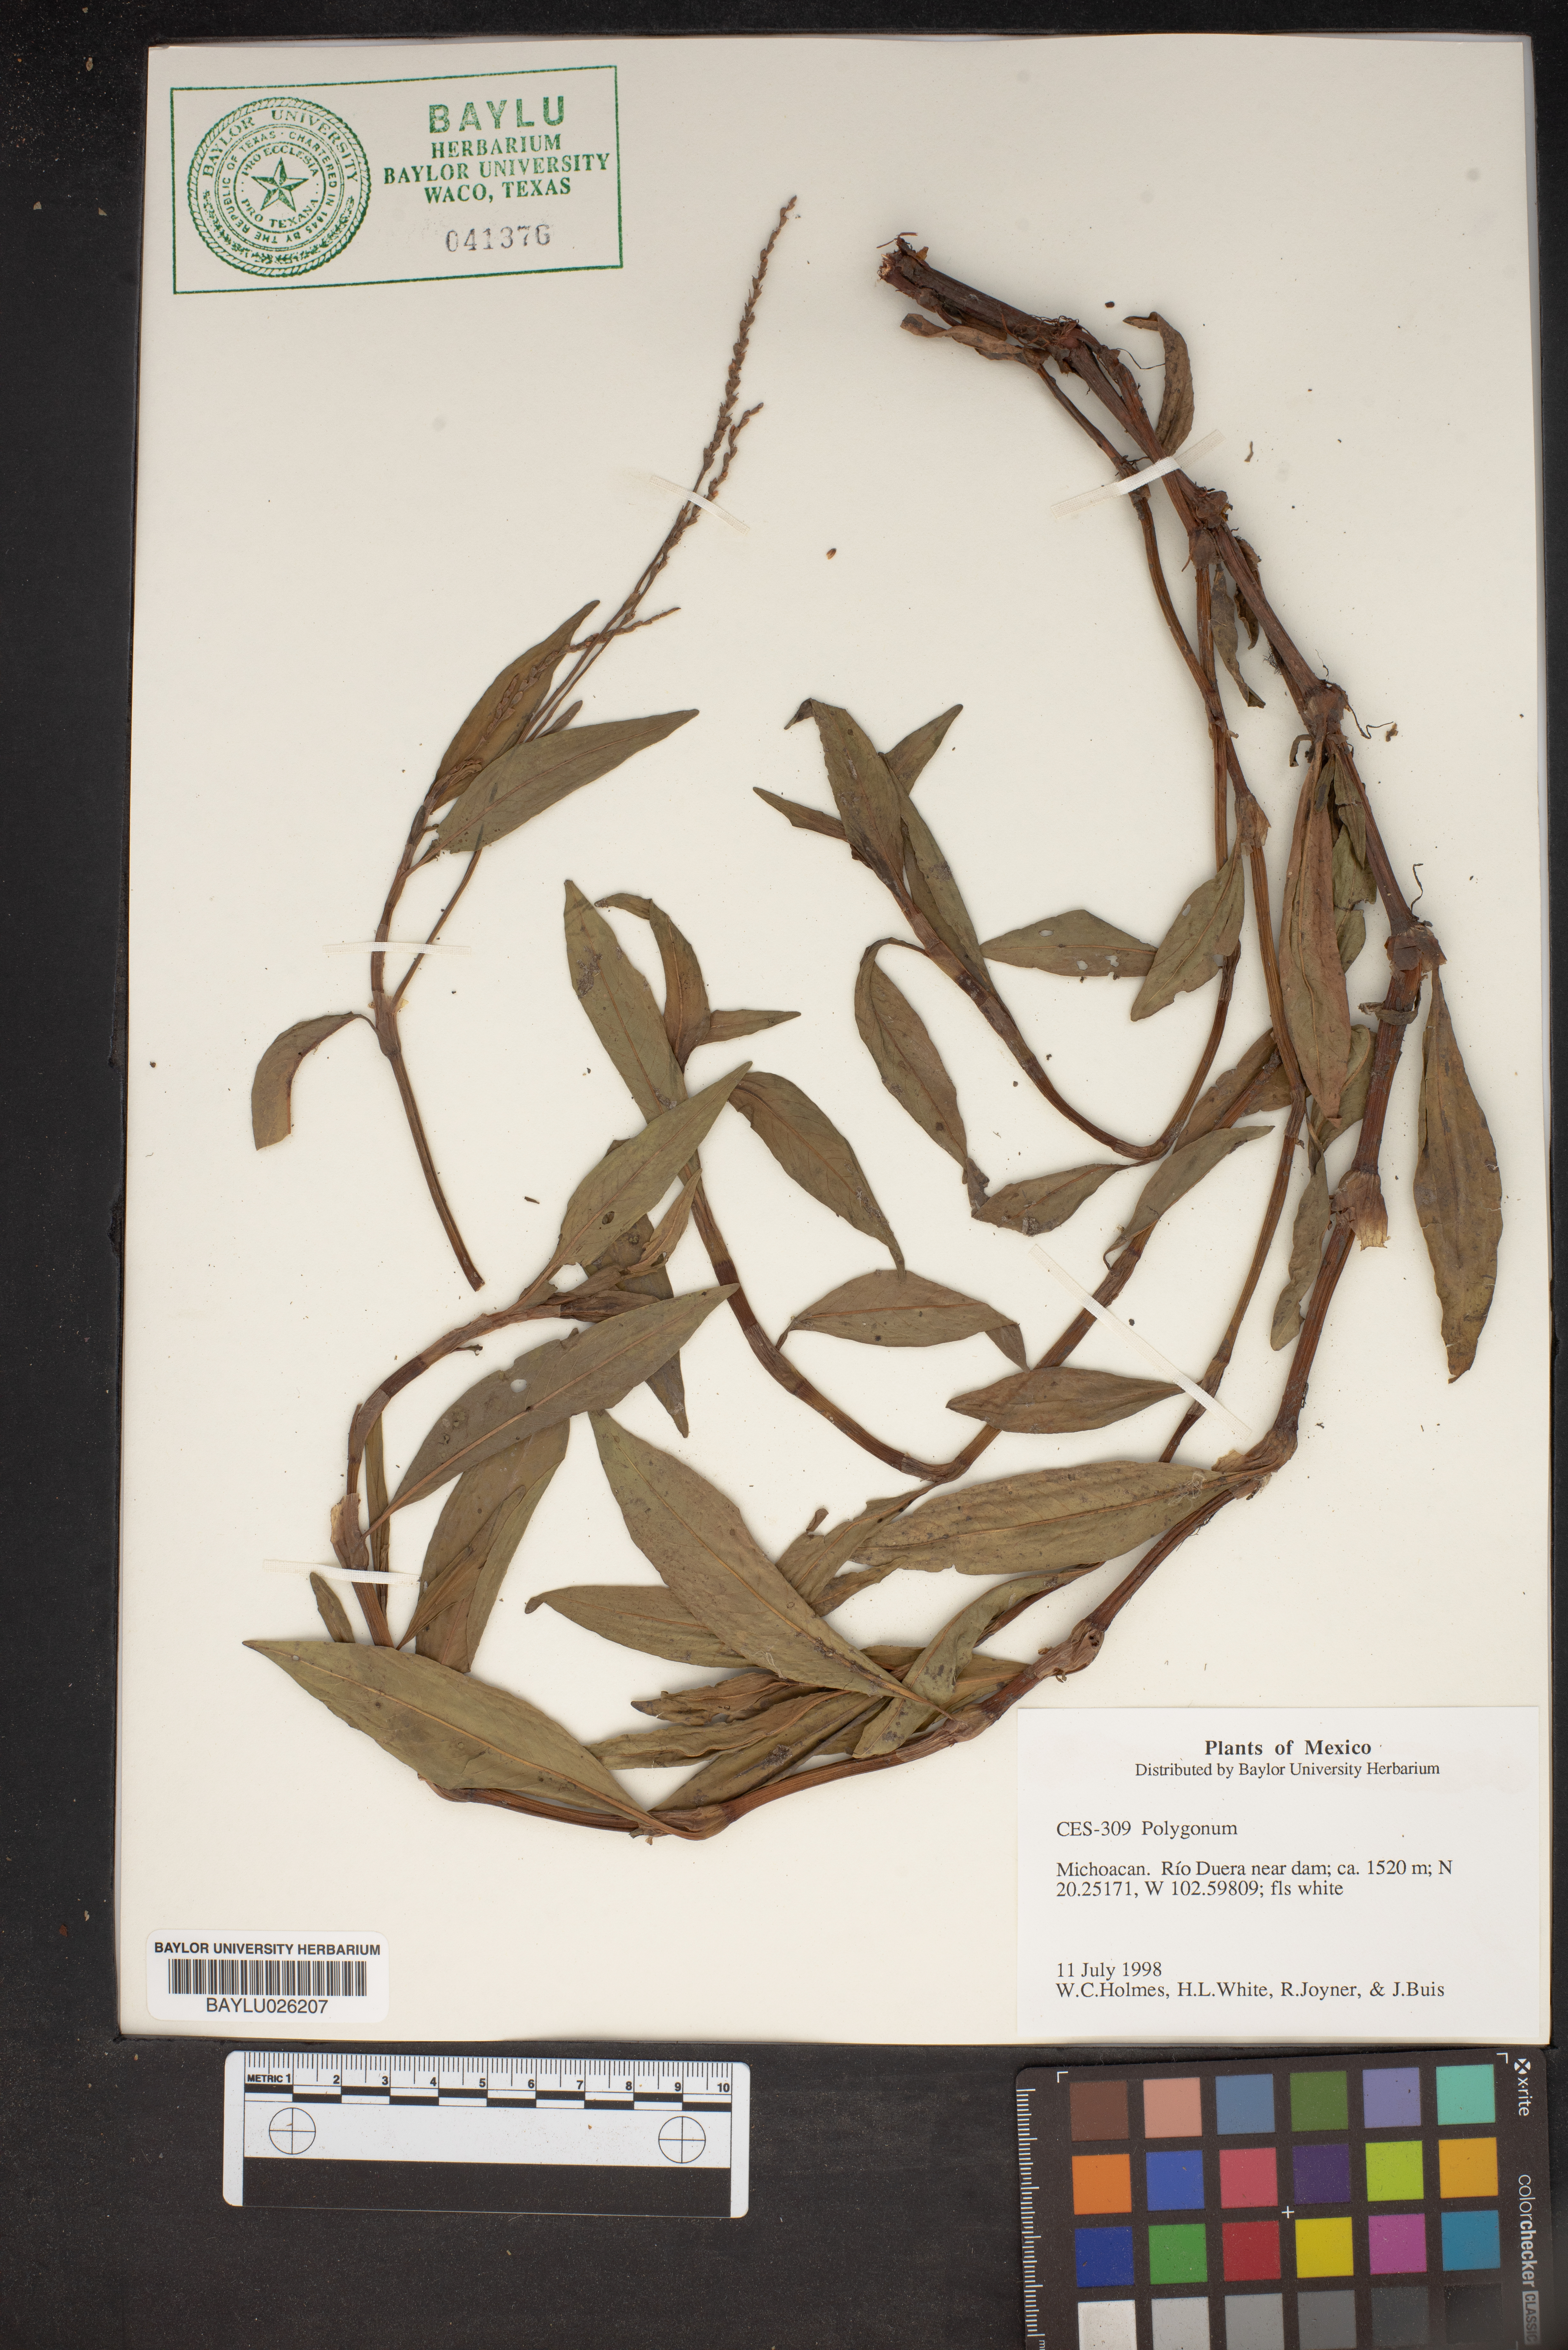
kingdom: Plantae
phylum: Tracheophyta
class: Magnoliopsida
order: Caryophyllales
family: Polygonaceae
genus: Polygonum
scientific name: Polygonum
